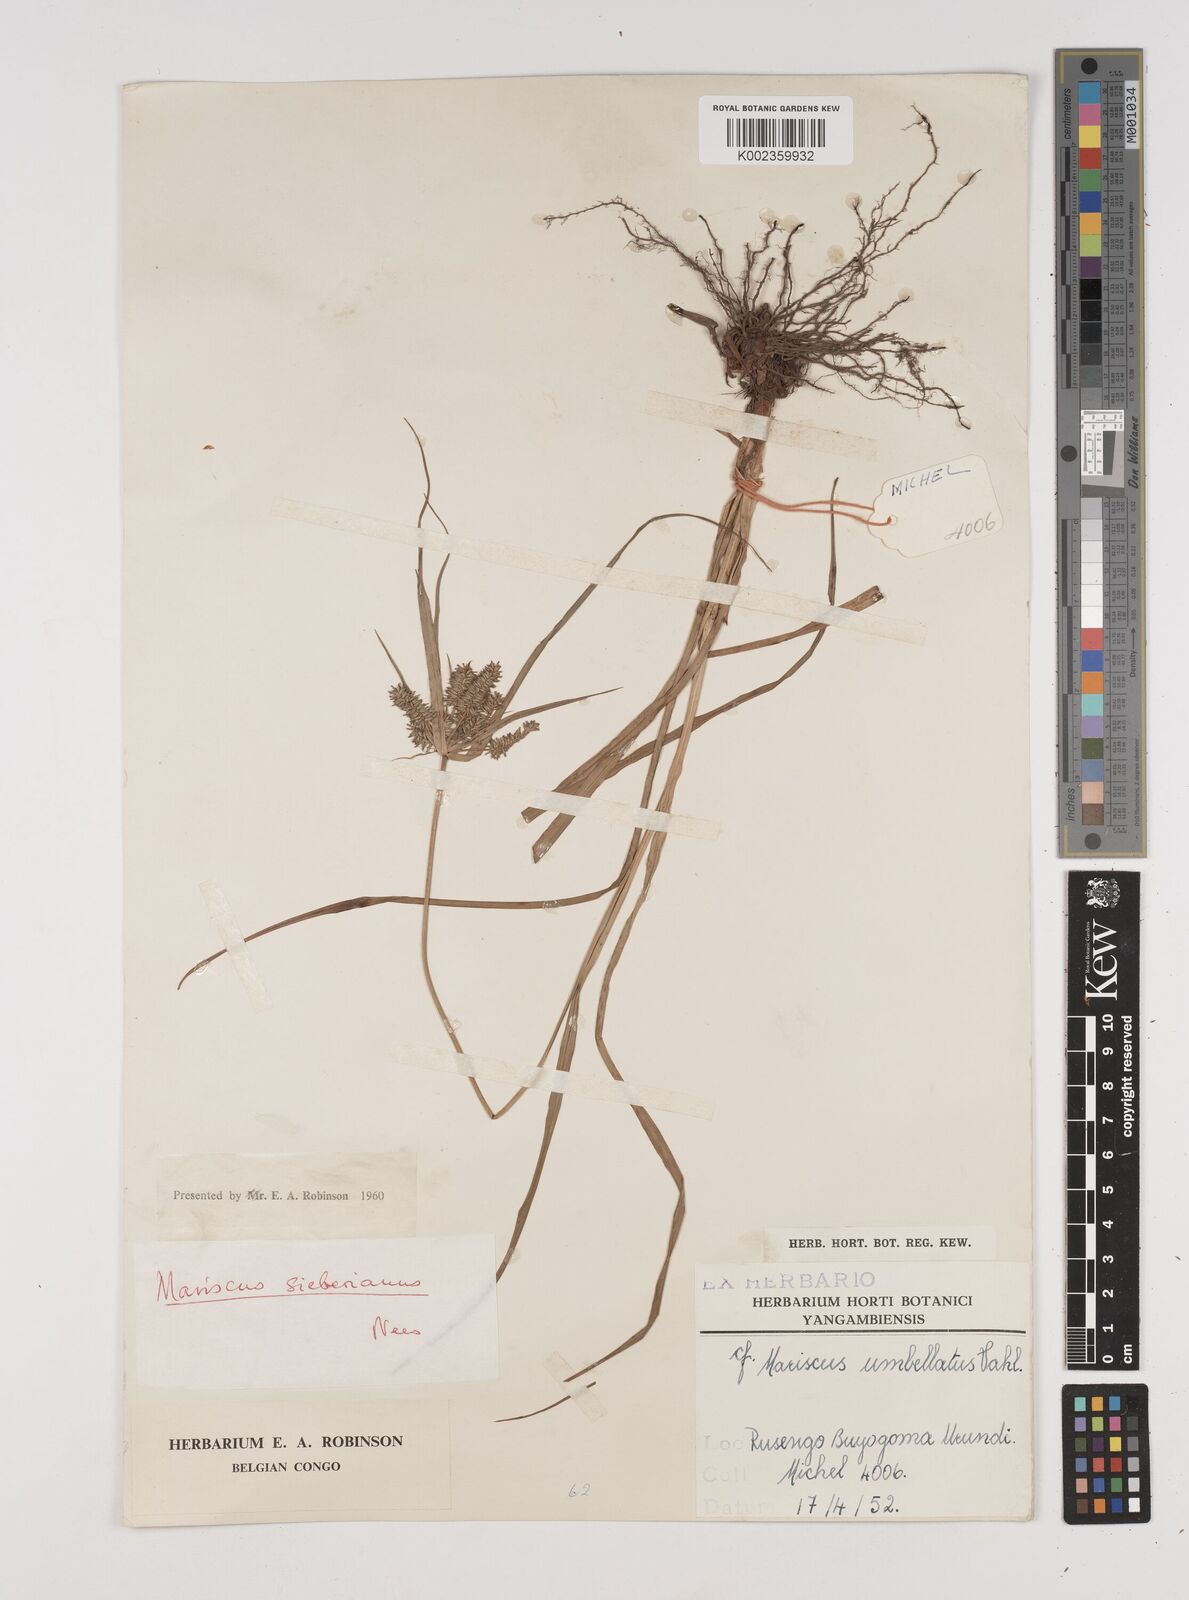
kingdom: Plantae
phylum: Tracheophyta
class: Liliopsida
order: Poales
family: Cyperaceae
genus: Cyperus
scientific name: Cyperus cyperoides
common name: Pacific island flat sedge
